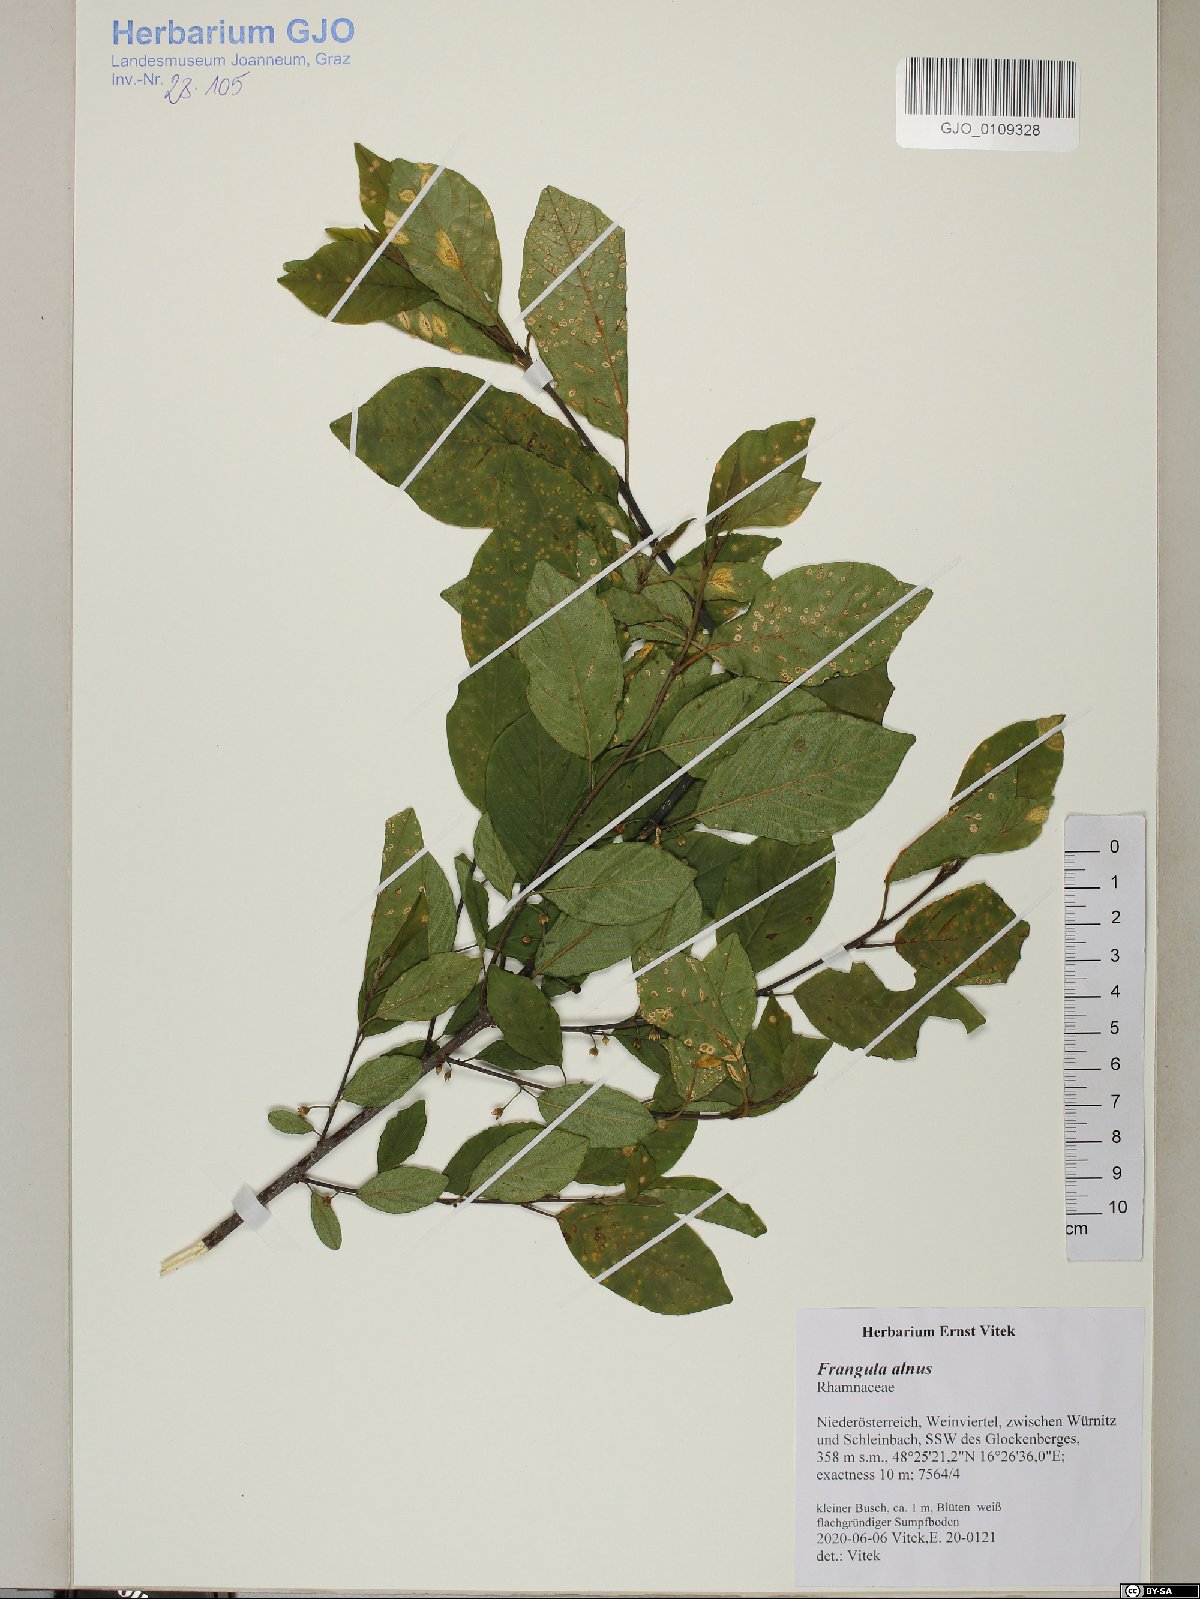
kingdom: Plantae
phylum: Tracheophyta
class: Magnoliopsida
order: Rosales
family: Rhamnaceae
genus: Frangula
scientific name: Frangula alnus
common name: Alder buckthorn
